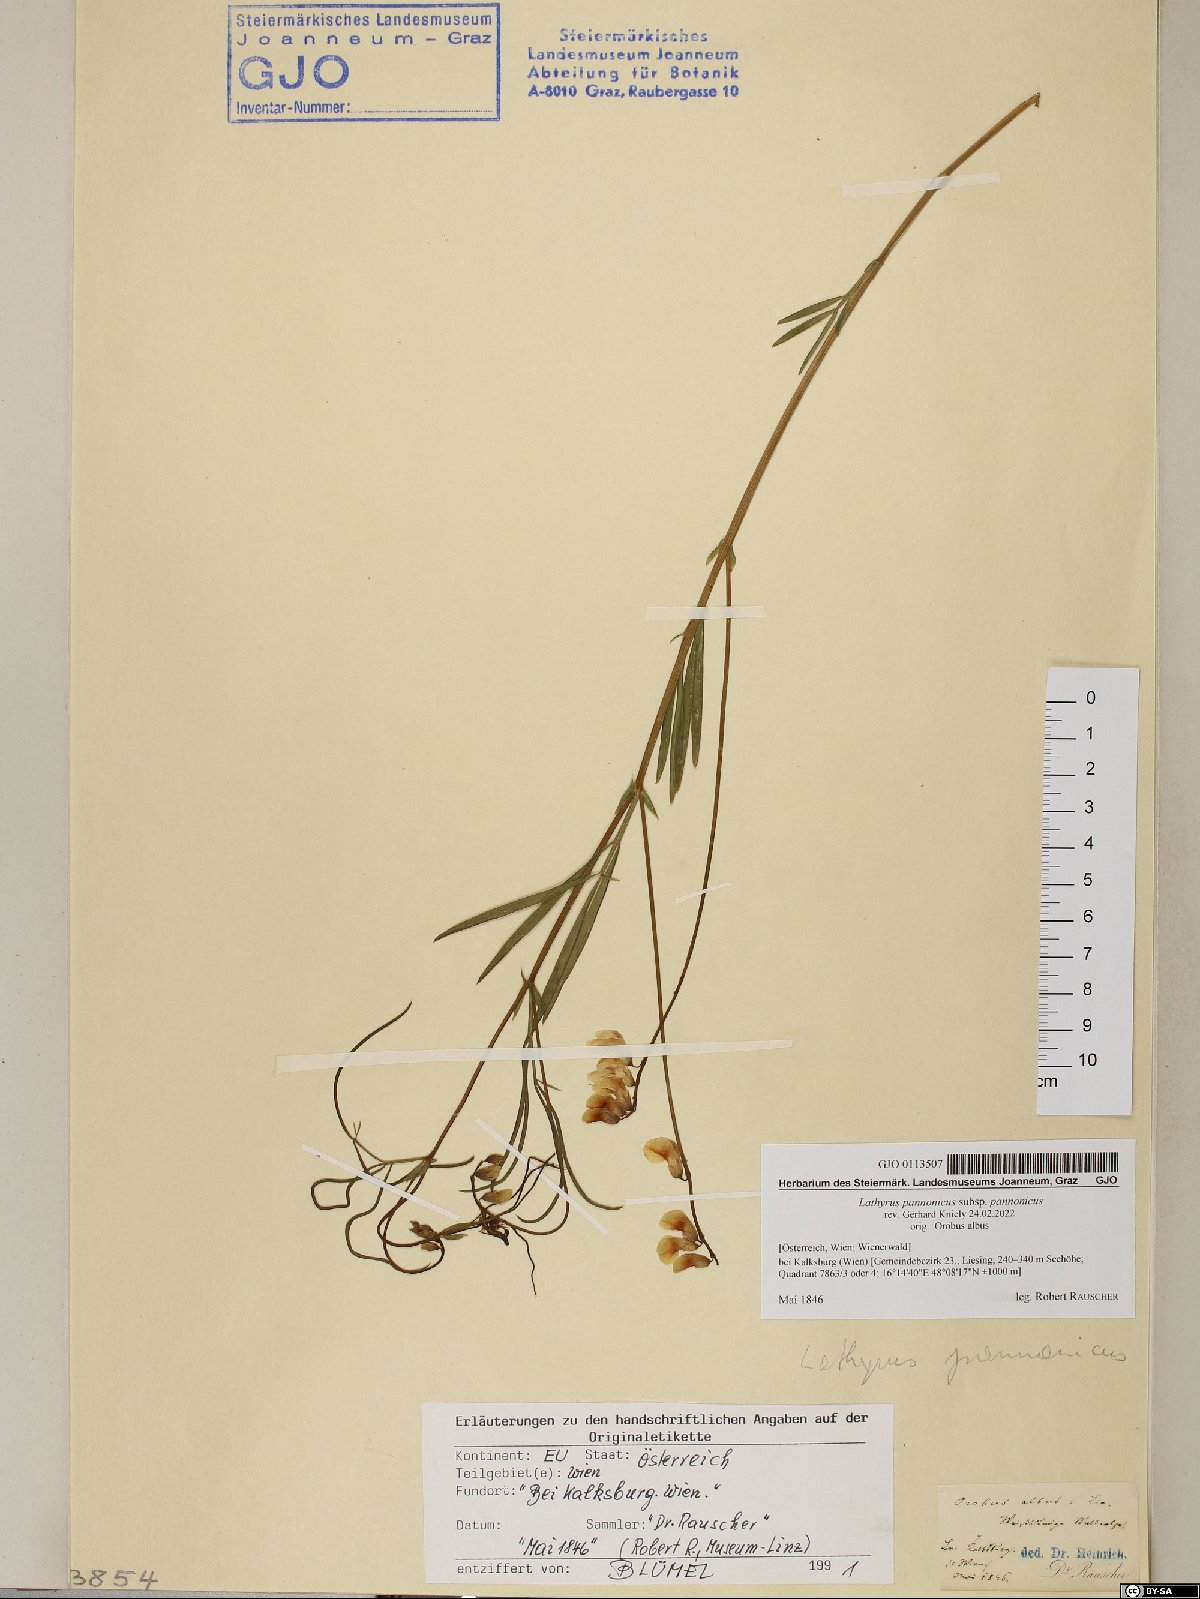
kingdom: Plantae
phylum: Tracheophyta
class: Magnoliopsida
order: Fabales
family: Fabaceae
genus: Lathyrus
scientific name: Lathyrus pannonicus
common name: Pea
